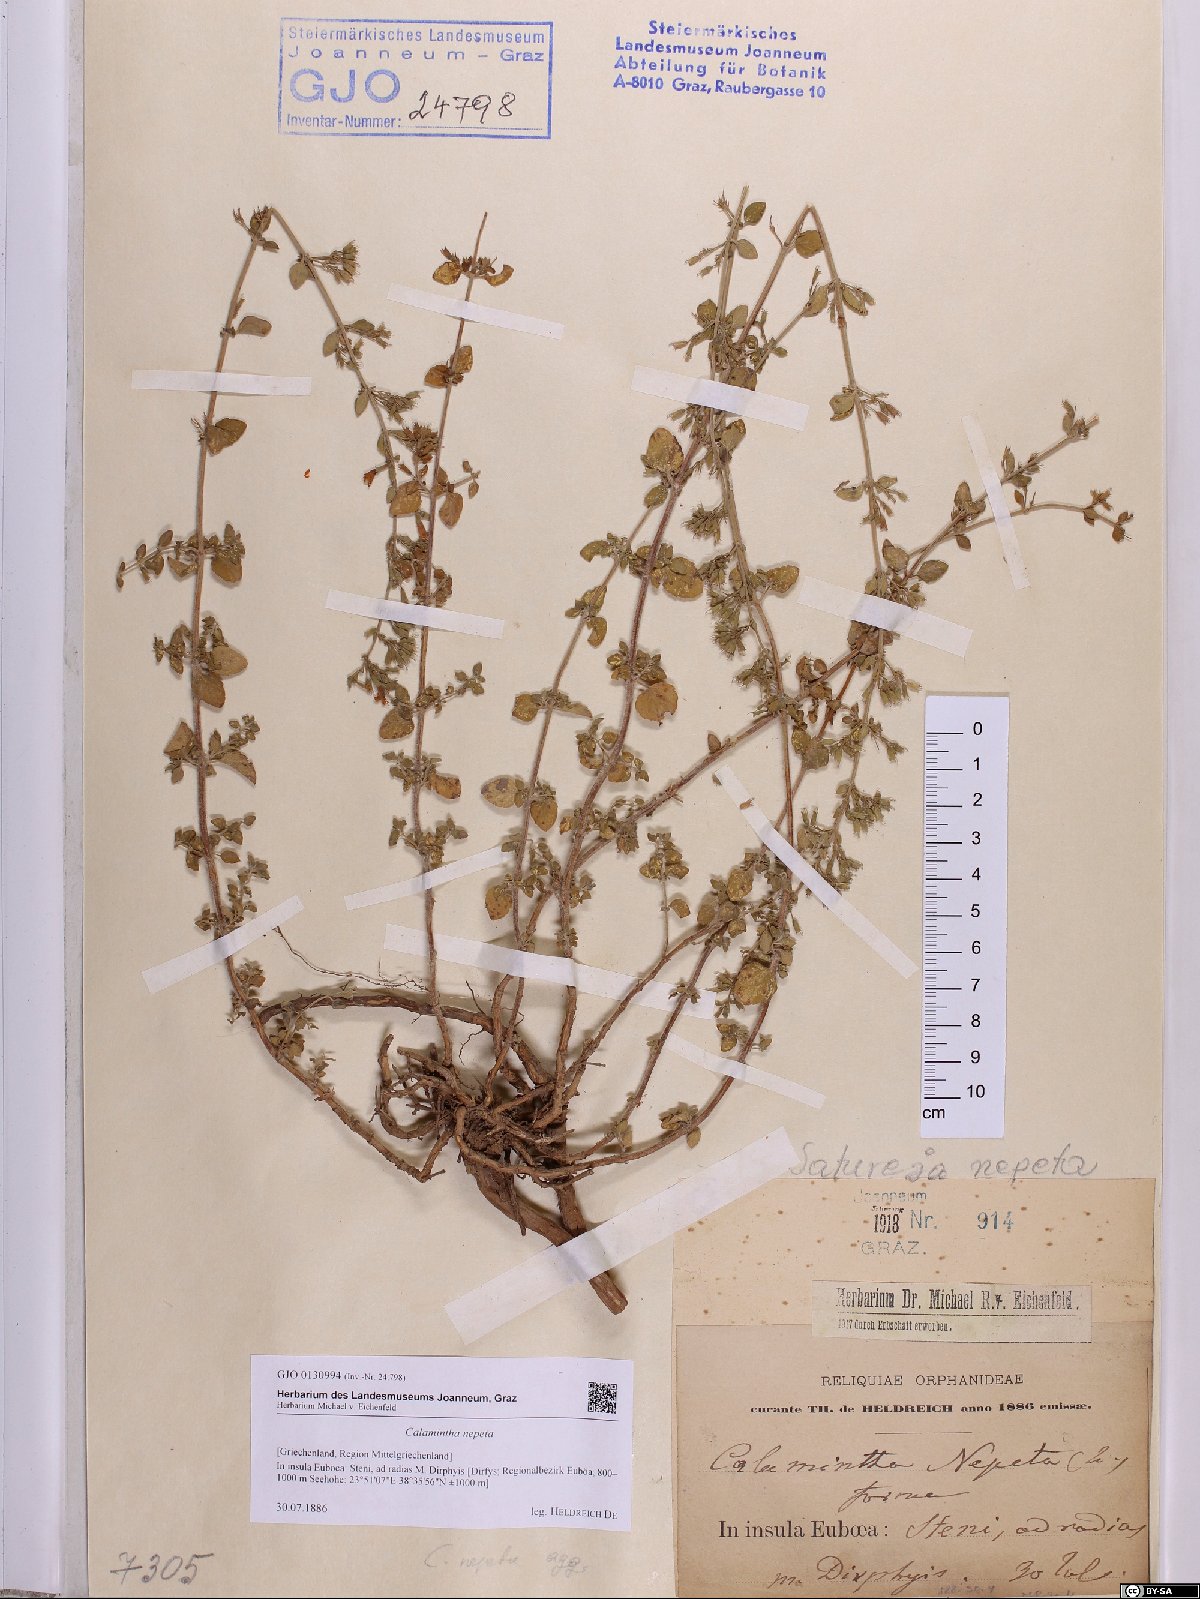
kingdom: Plantae
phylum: Tracheophyta
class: Magnoliopsida
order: Lamiales
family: Lamiaceae
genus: Clinopodium
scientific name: Clinopodium nepeta
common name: Lesser calamint
